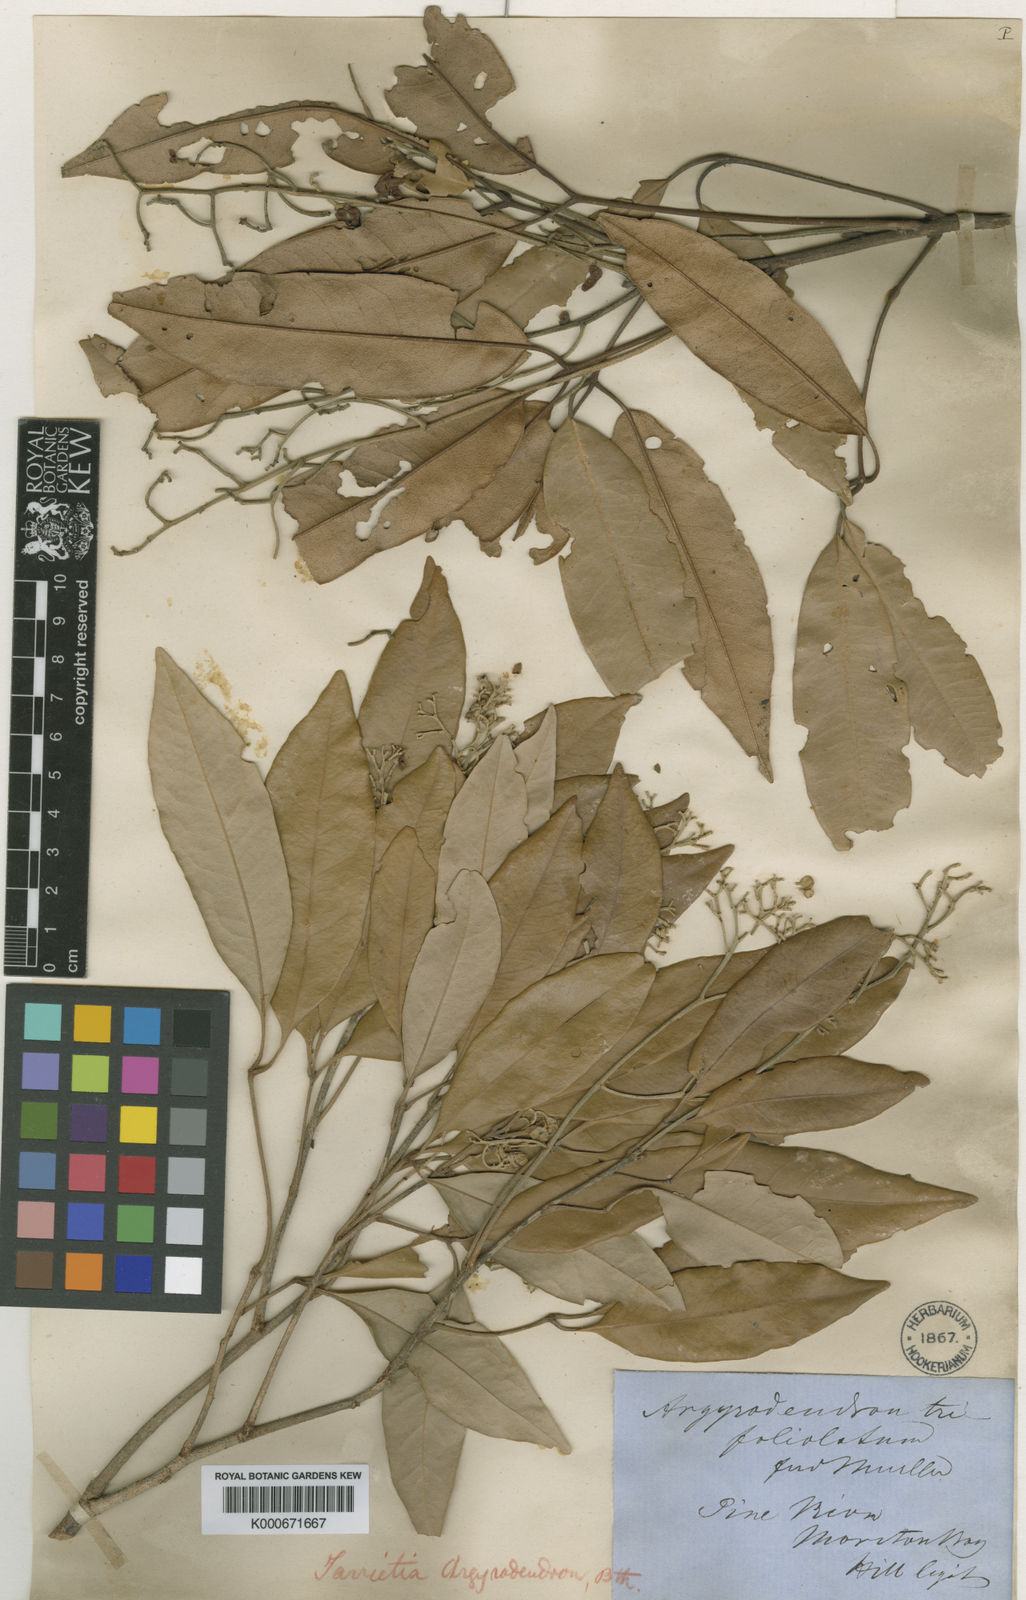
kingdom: Plantae
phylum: Tracheophyta
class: Magnoliopsida
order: Malvales
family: Malvaceae
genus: Argyrodendron
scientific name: Argyrodendron trifoliolatum
